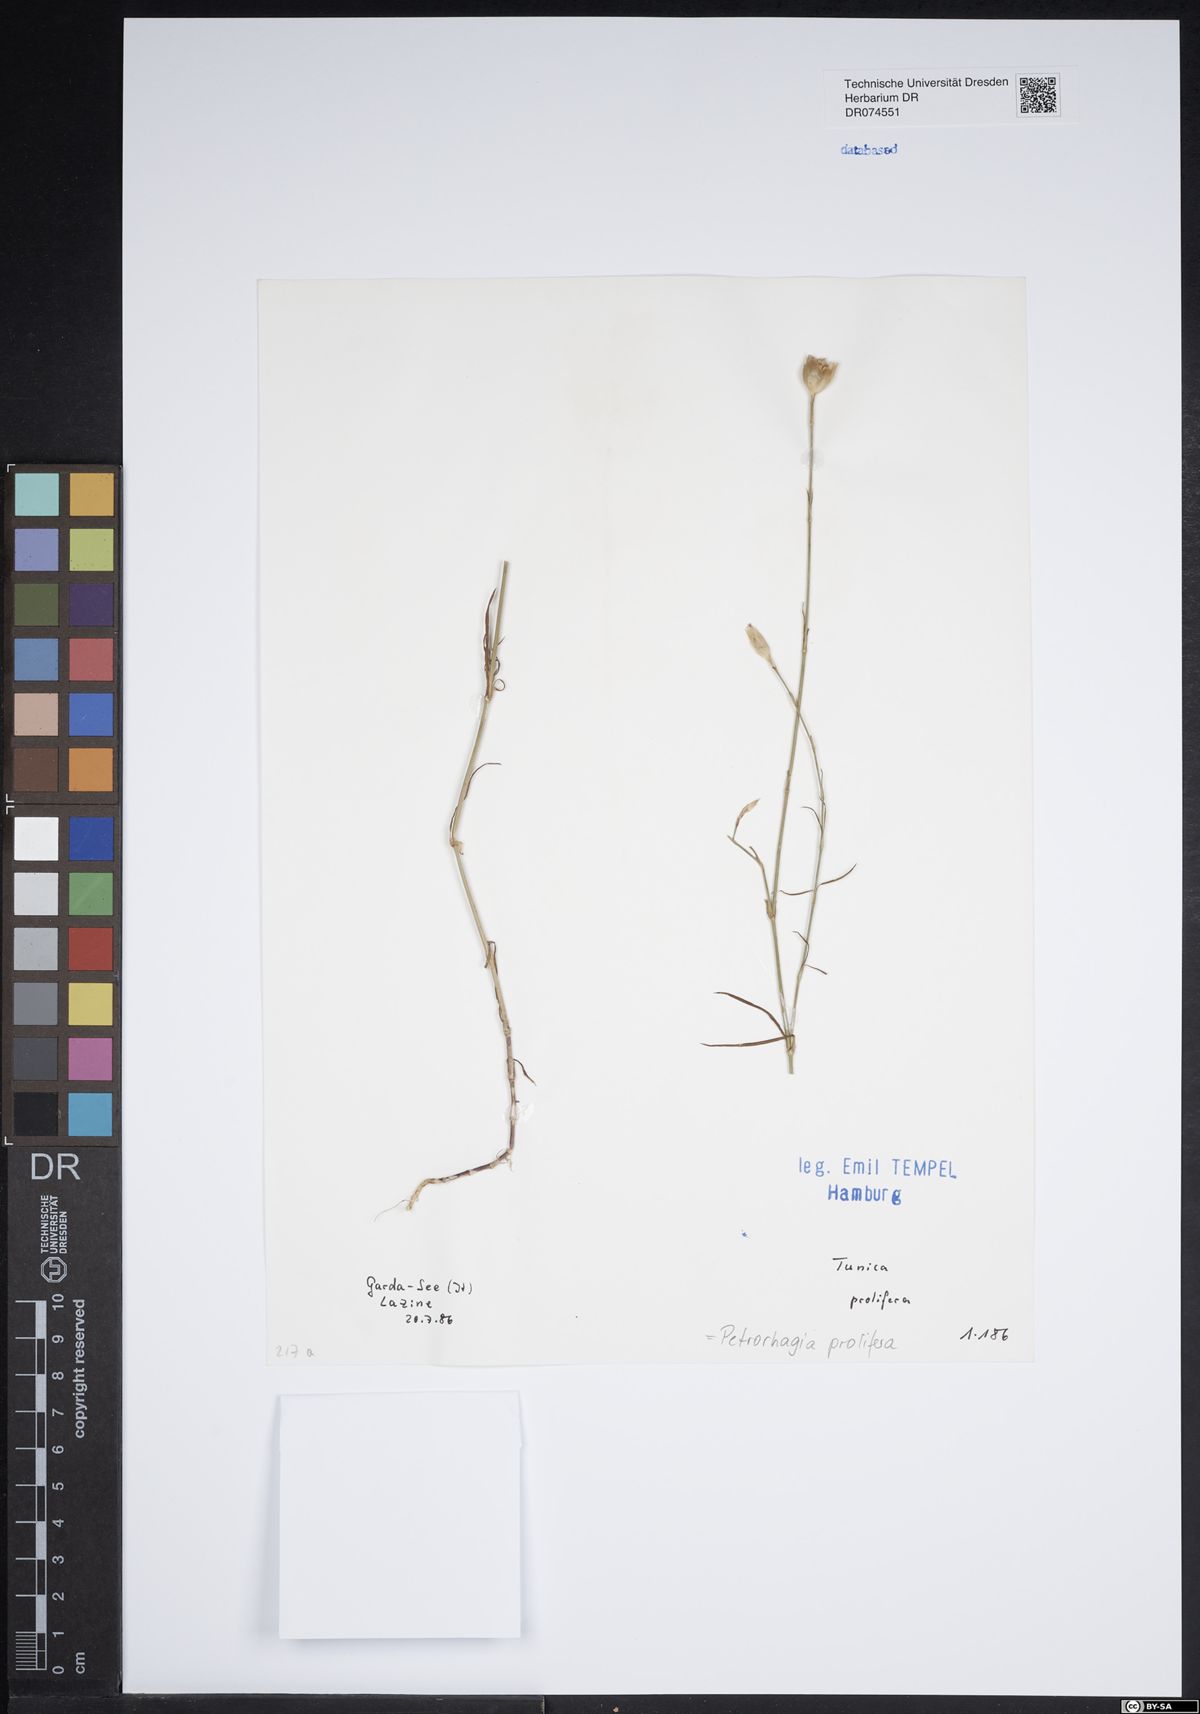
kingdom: Plantae
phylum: Tracheophyta
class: Magnoliopsida
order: Caryophyllales
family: Caryophyllaceae
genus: Petrorhagia
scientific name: Petrorhagia prolifera
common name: Proliferous pink
